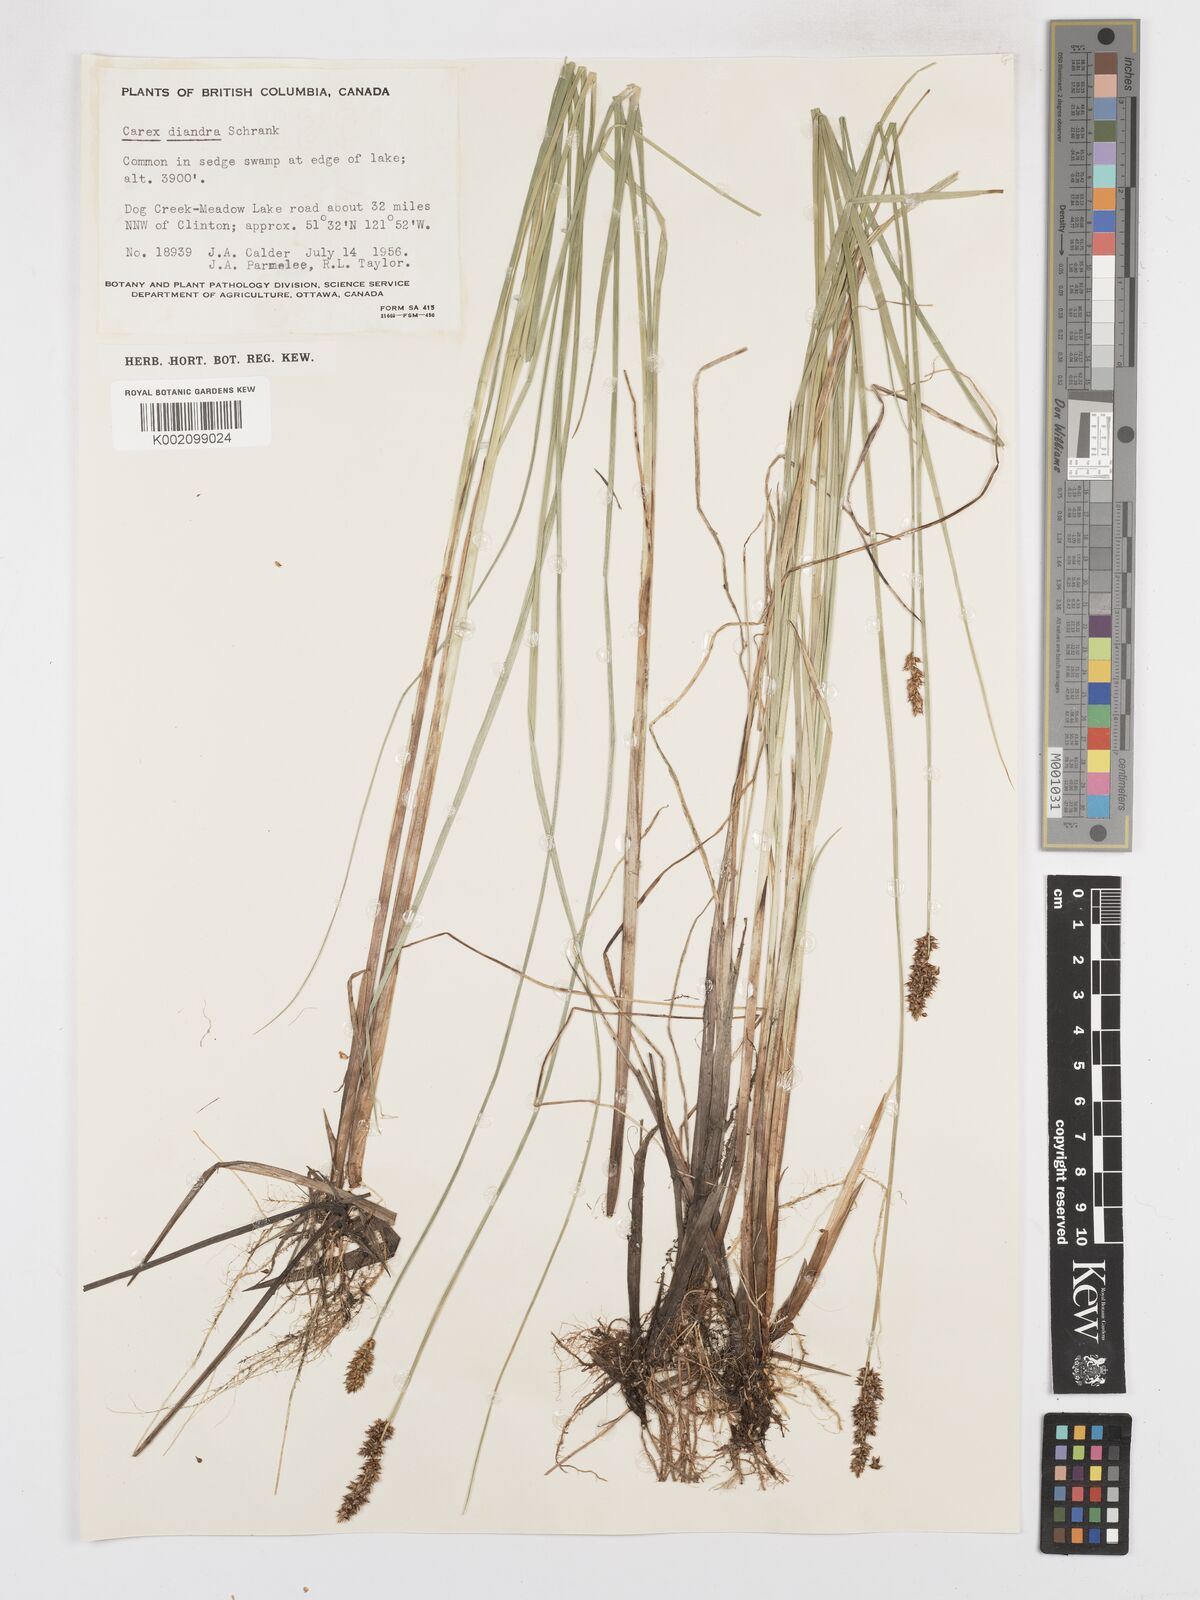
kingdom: Plantae
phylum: Tracheophyta
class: Liliopsida
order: Poales
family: Cyperaceae
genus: Carex
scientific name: Carex diandra
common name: Lesser tussock-sedge
